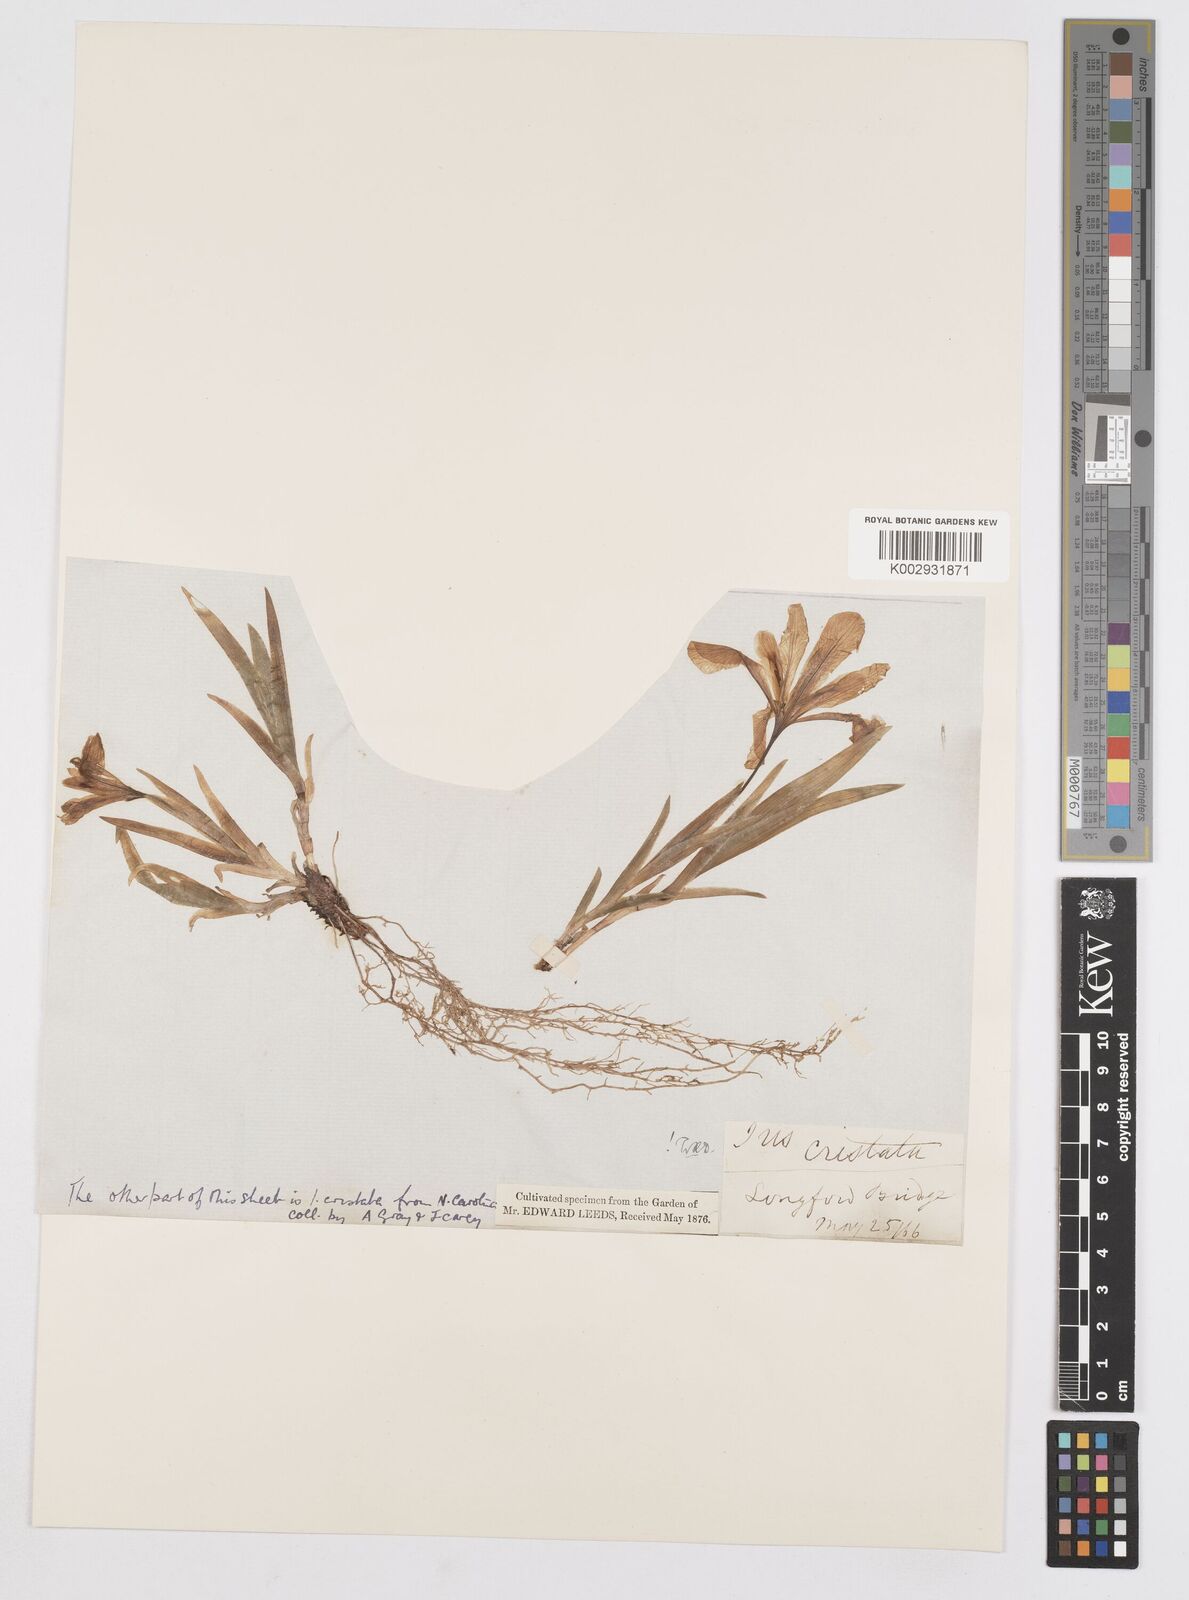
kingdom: Plantae
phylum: Tracheophyta
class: Liliopsida
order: Asparagales
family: Iridaceae
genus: Iris
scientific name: Iris cristata
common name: Crested iris
